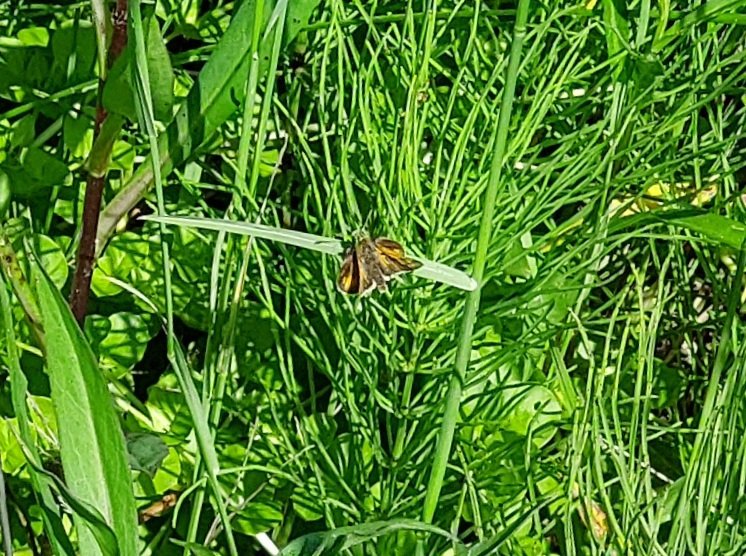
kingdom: Animalia
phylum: Arthropoda
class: Insecta
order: Lepidoptera
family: Hesperiidae
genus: Polites
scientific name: Polites coras
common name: Peck's Skipper
